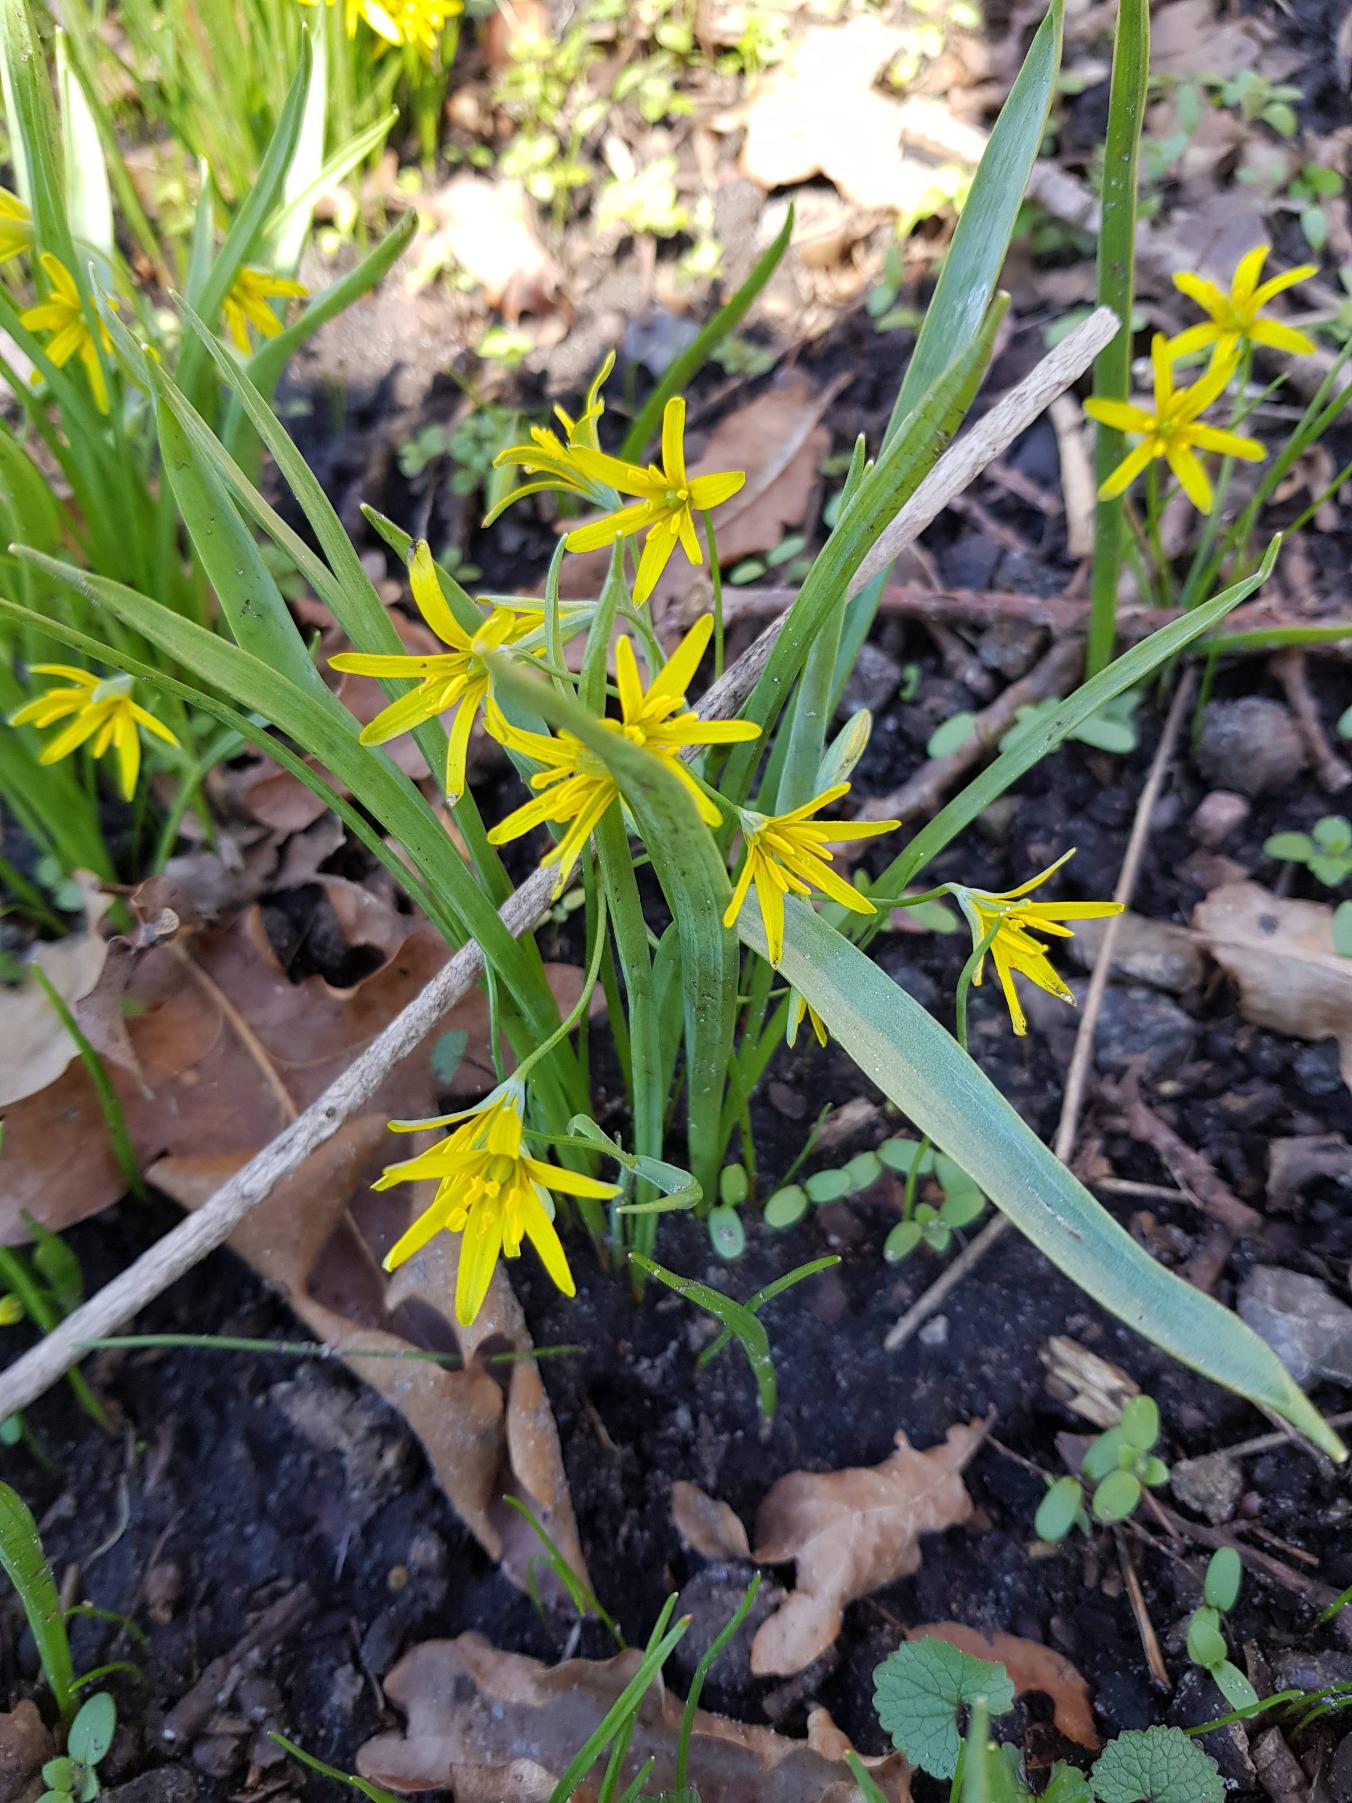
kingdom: Plantae
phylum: Tracheophyta
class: Liliopsida
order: Liliales
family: Liliaceae
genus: Gagea
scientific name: Gagea lutea
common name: Almindelig guldstjerne
